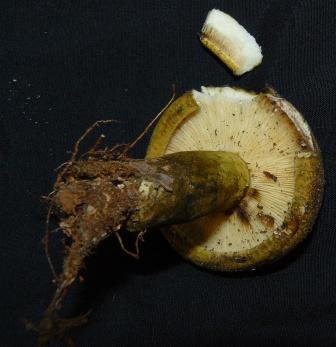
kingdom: Fungi
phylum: Basidiomycota
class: Agaricomycetes
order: Russulales
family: Russulaceae
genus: Lactarius
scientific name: Lactarius necator
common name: manddraber-mælkehat
